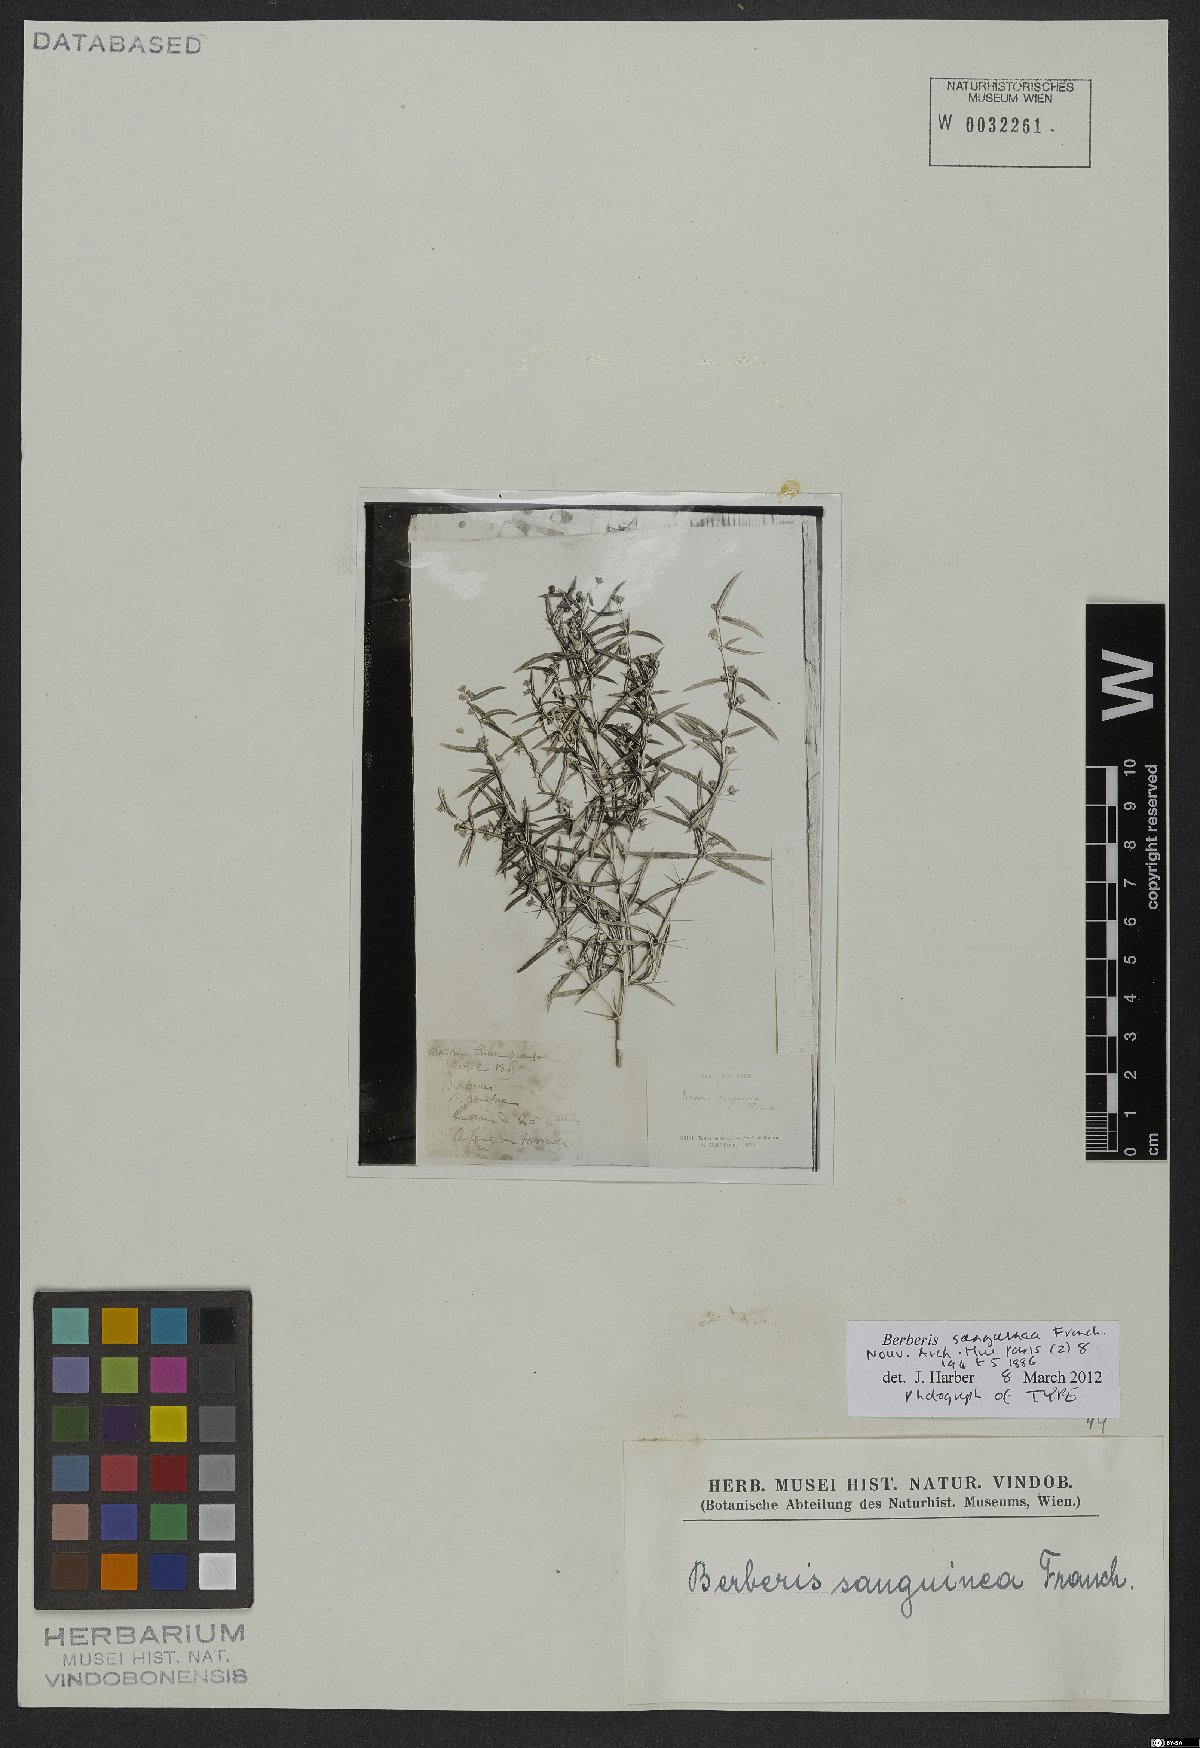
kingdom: Plantae
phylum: Tracheophyta
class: Magnoliopsida
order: Ranunculales
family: Berberidaceae
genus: Berberis
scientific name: Berberis sanguinea
